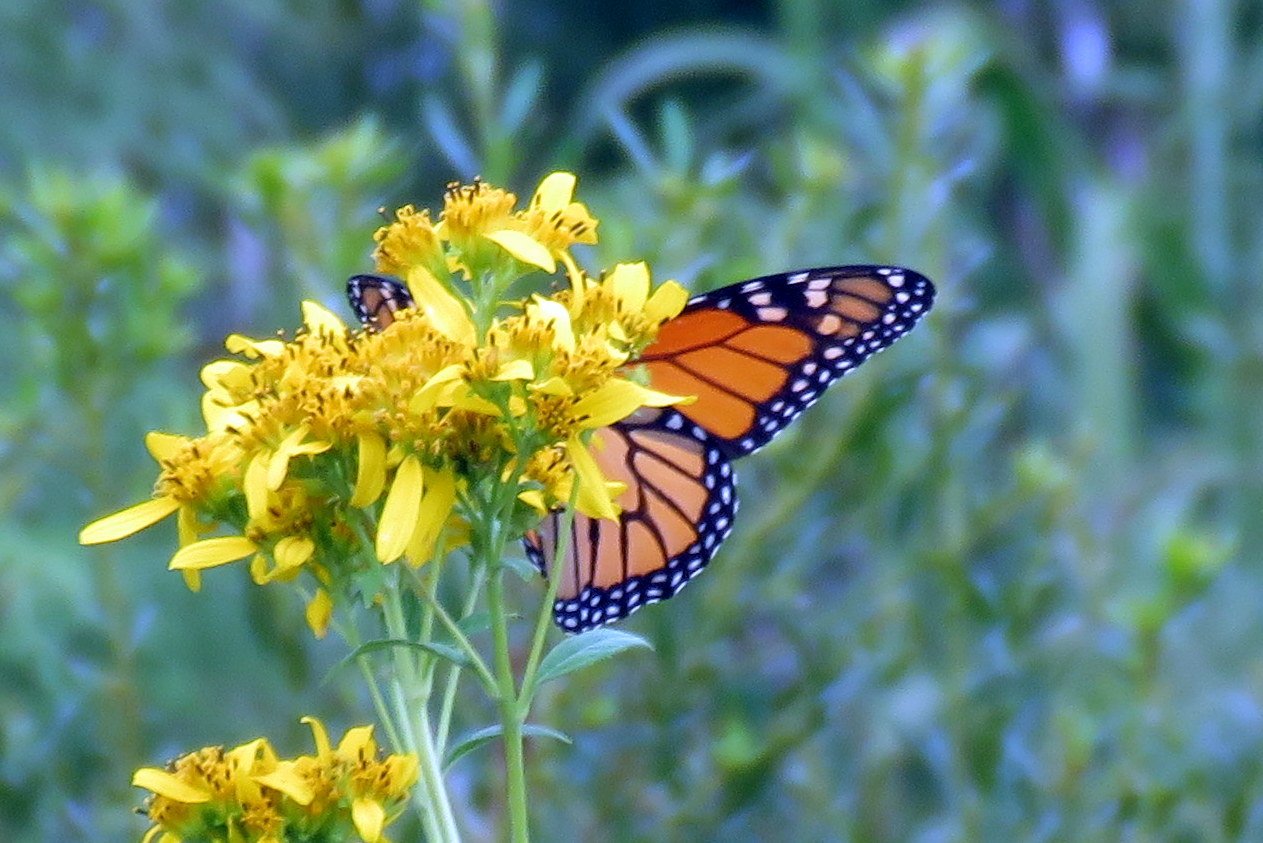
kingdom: Animalia
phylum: Arthropoda
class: Insecta
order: Lepidoptera
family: Nymphalidae
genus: Danaus
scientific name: Danaus plexippus
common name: Monarch
